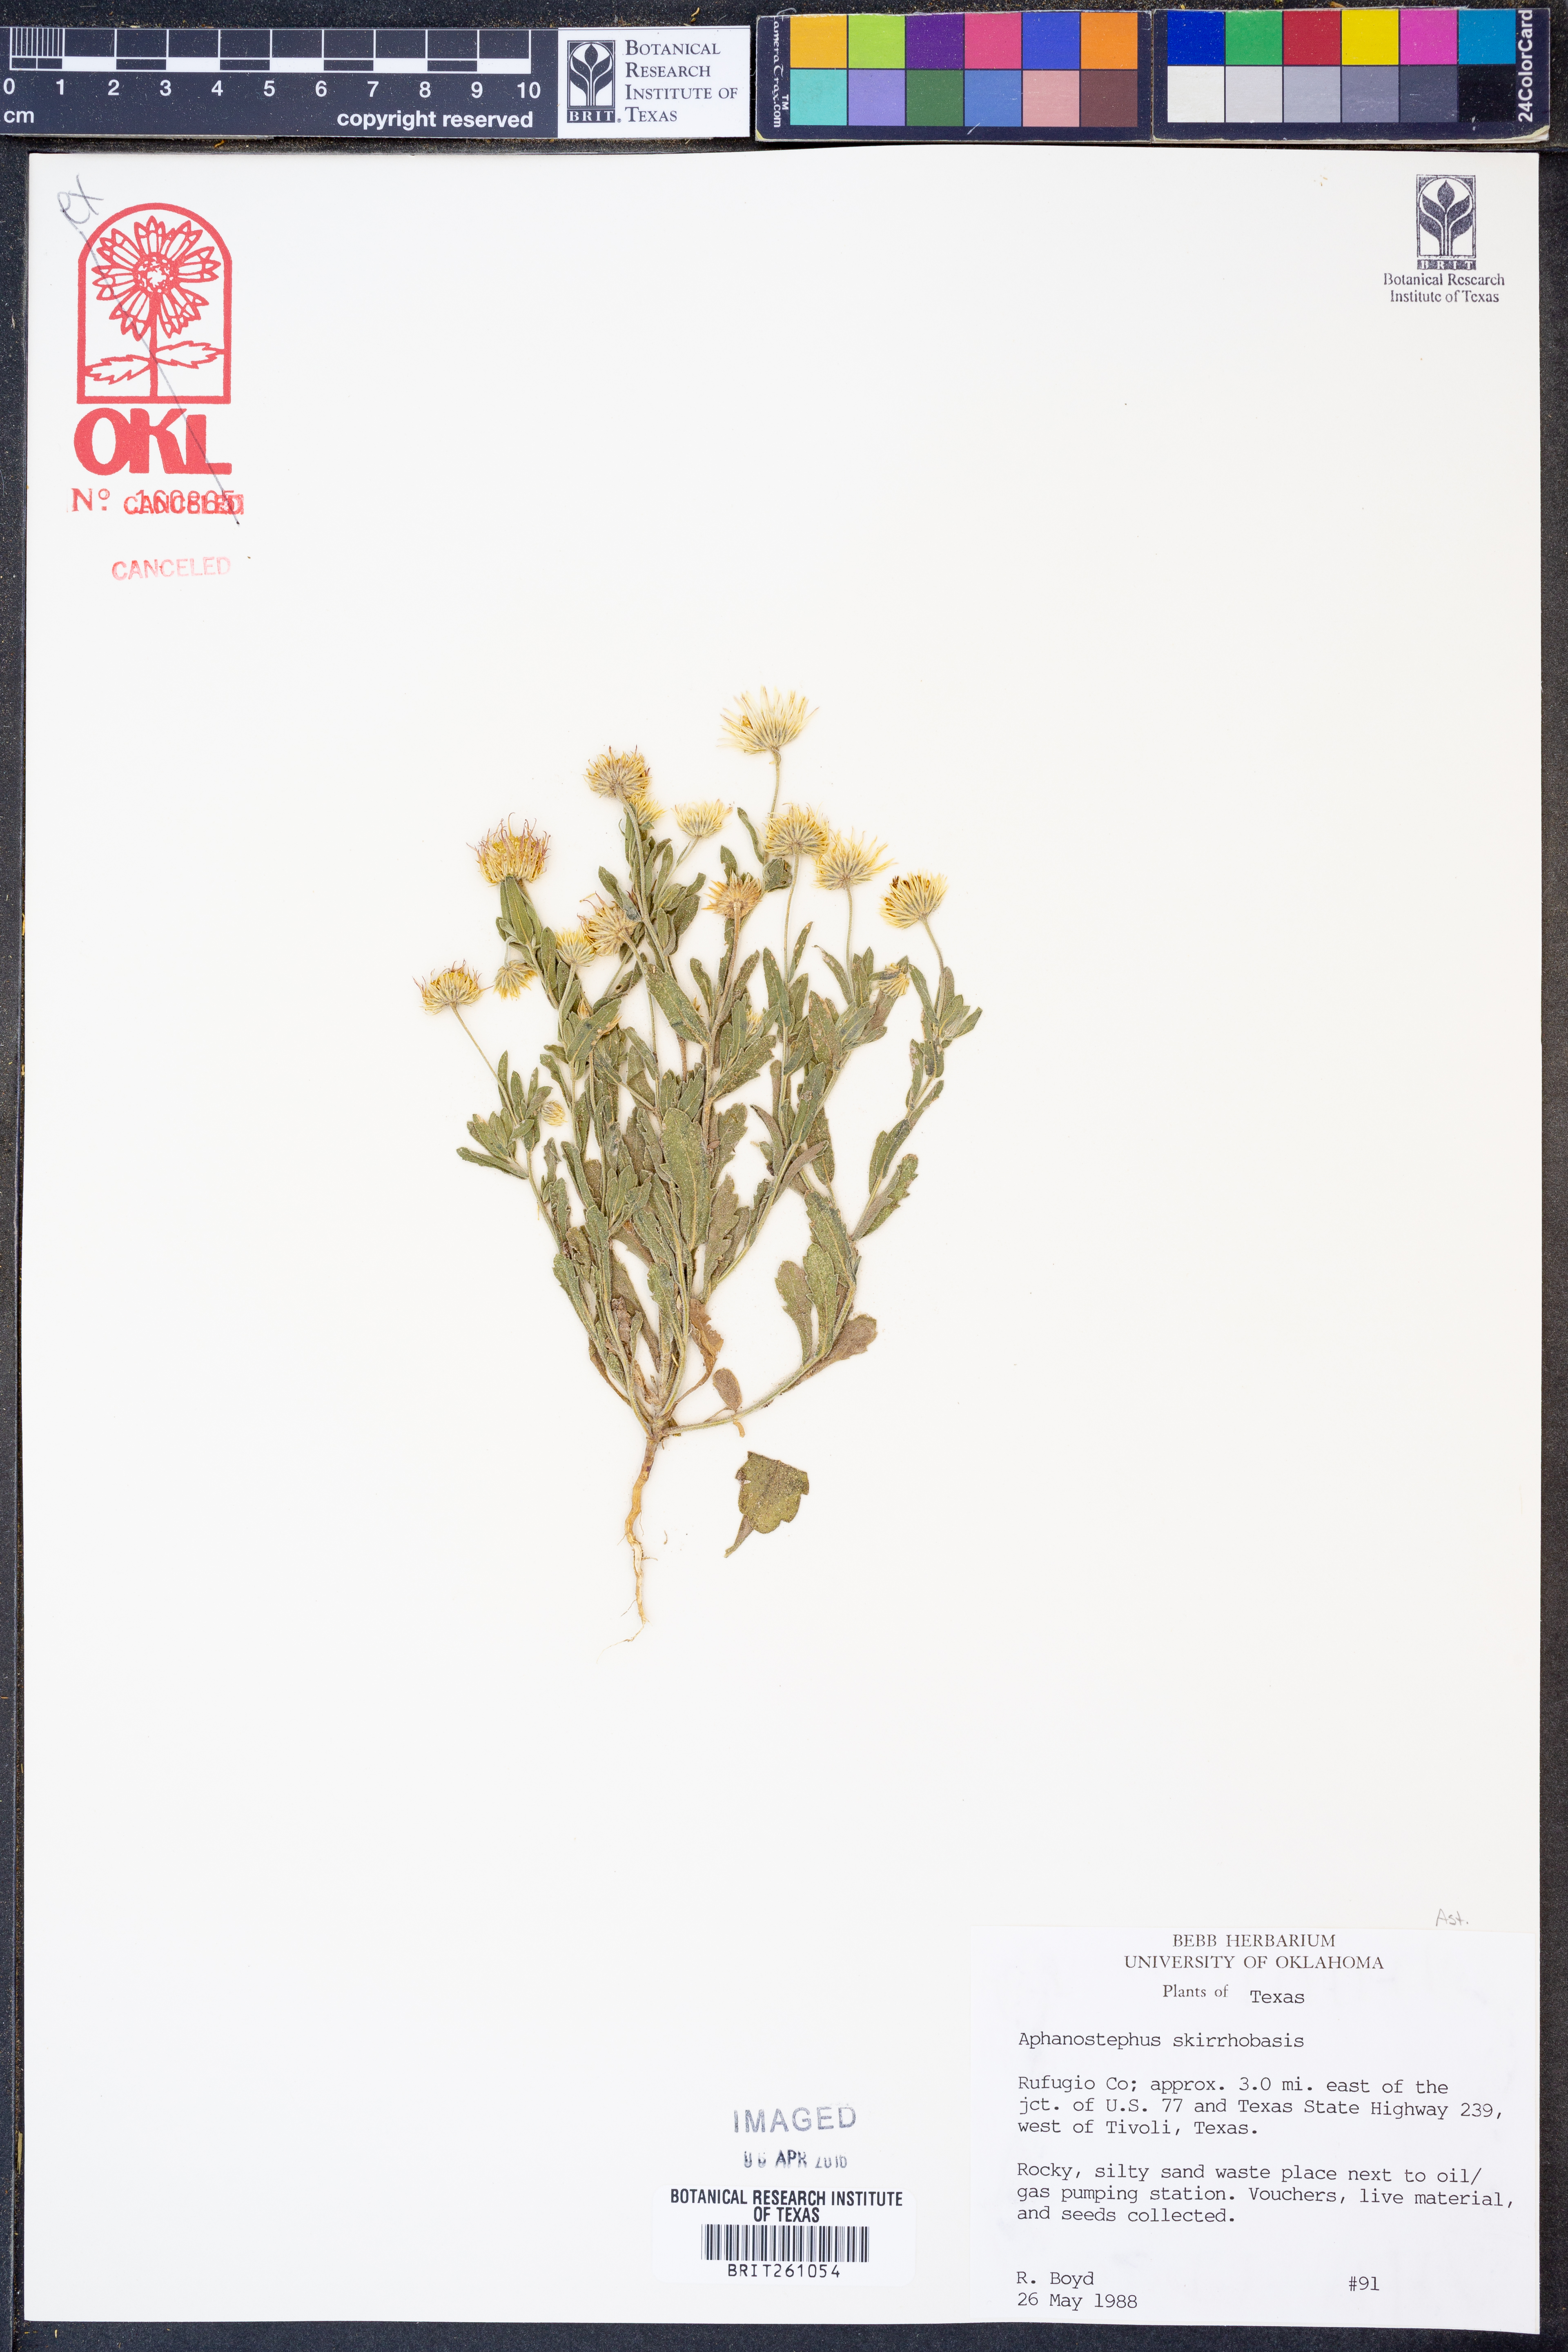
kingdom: Plantae
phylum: Tracheophyta
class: Magnoliopsida
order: Asterales
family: Asteraceae
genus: Aphanostephus
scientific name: Aphanostephus skirrhobasis
